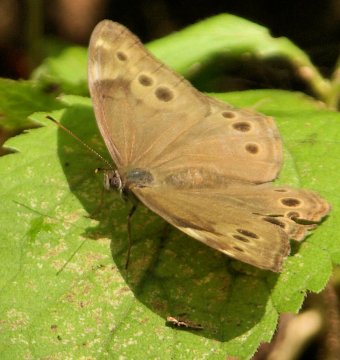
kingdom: Animalia
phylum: Arthropoda
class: Insecta
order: Lepidoptera
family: Nymphalidae
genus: Lethe
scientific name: Lethe anthedon
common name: Northern Pearly-Eye
